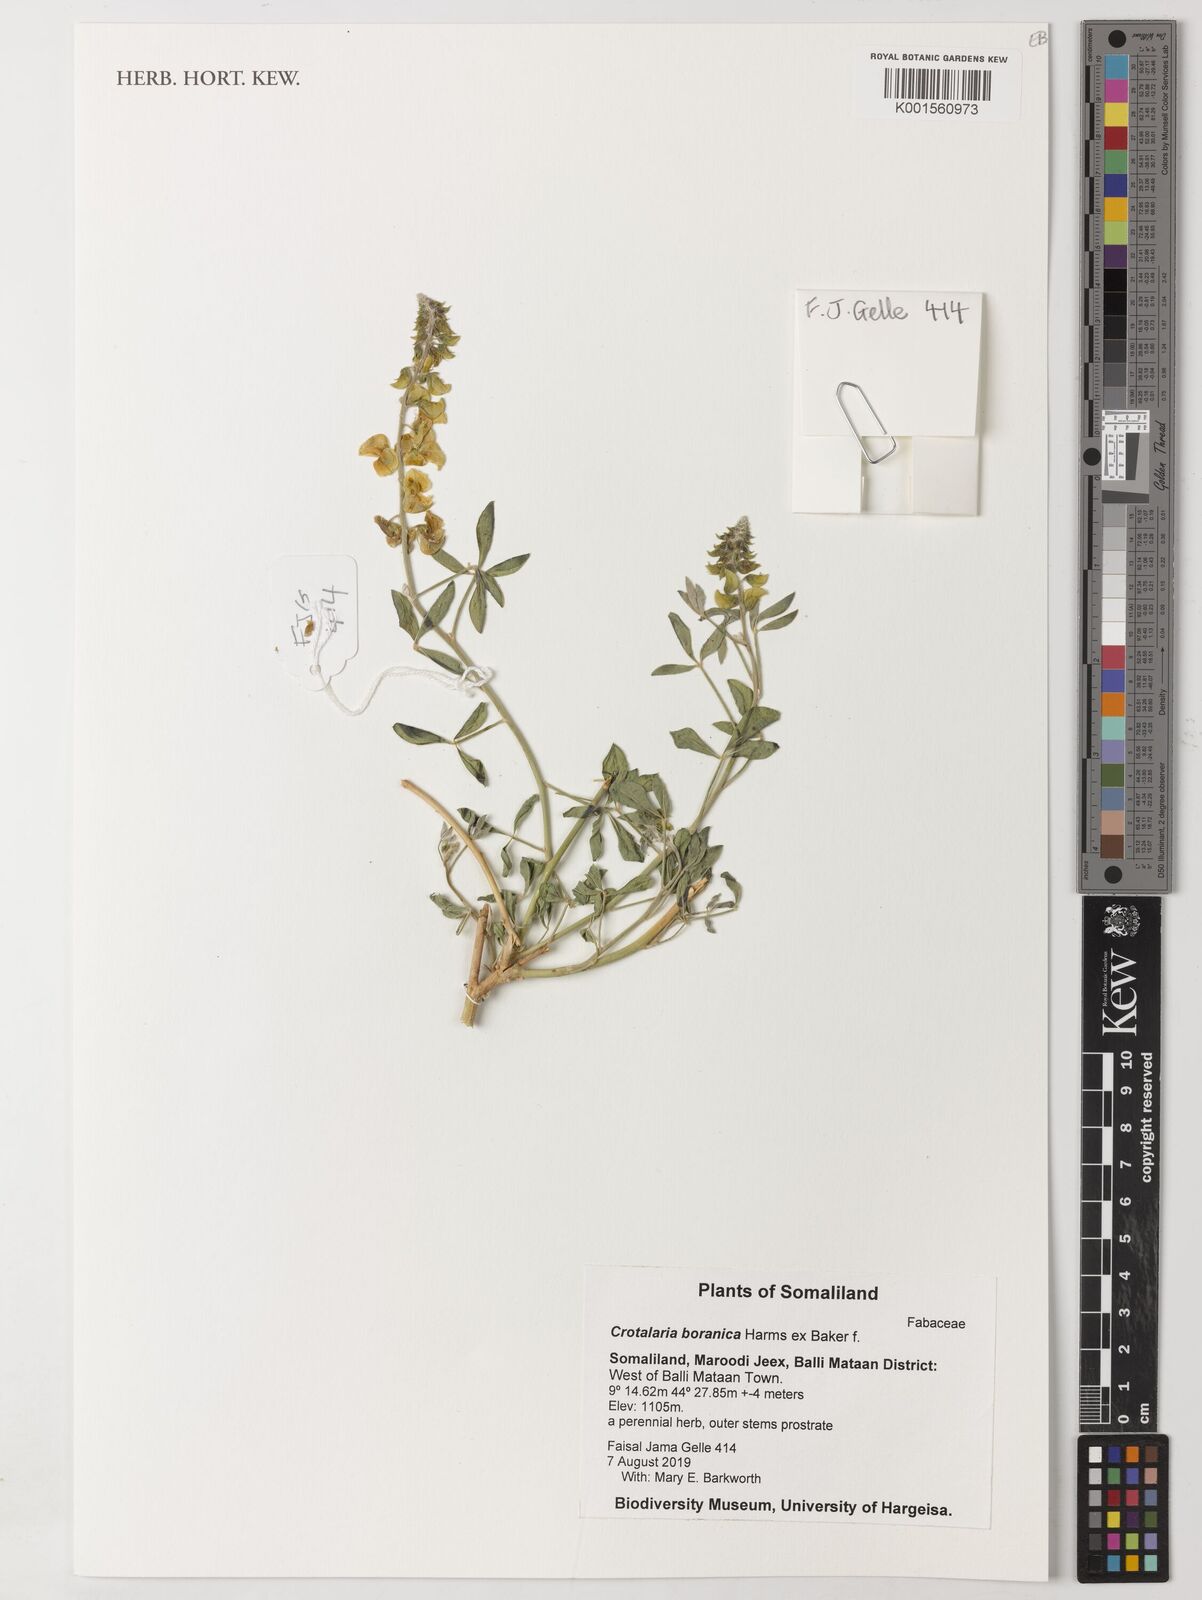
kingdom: Plantae
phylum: Tracheophyta
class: Magnoliopsida
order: Fabales
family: Fabaceae
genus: Crotalaria
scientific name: Crotalaria boranica
